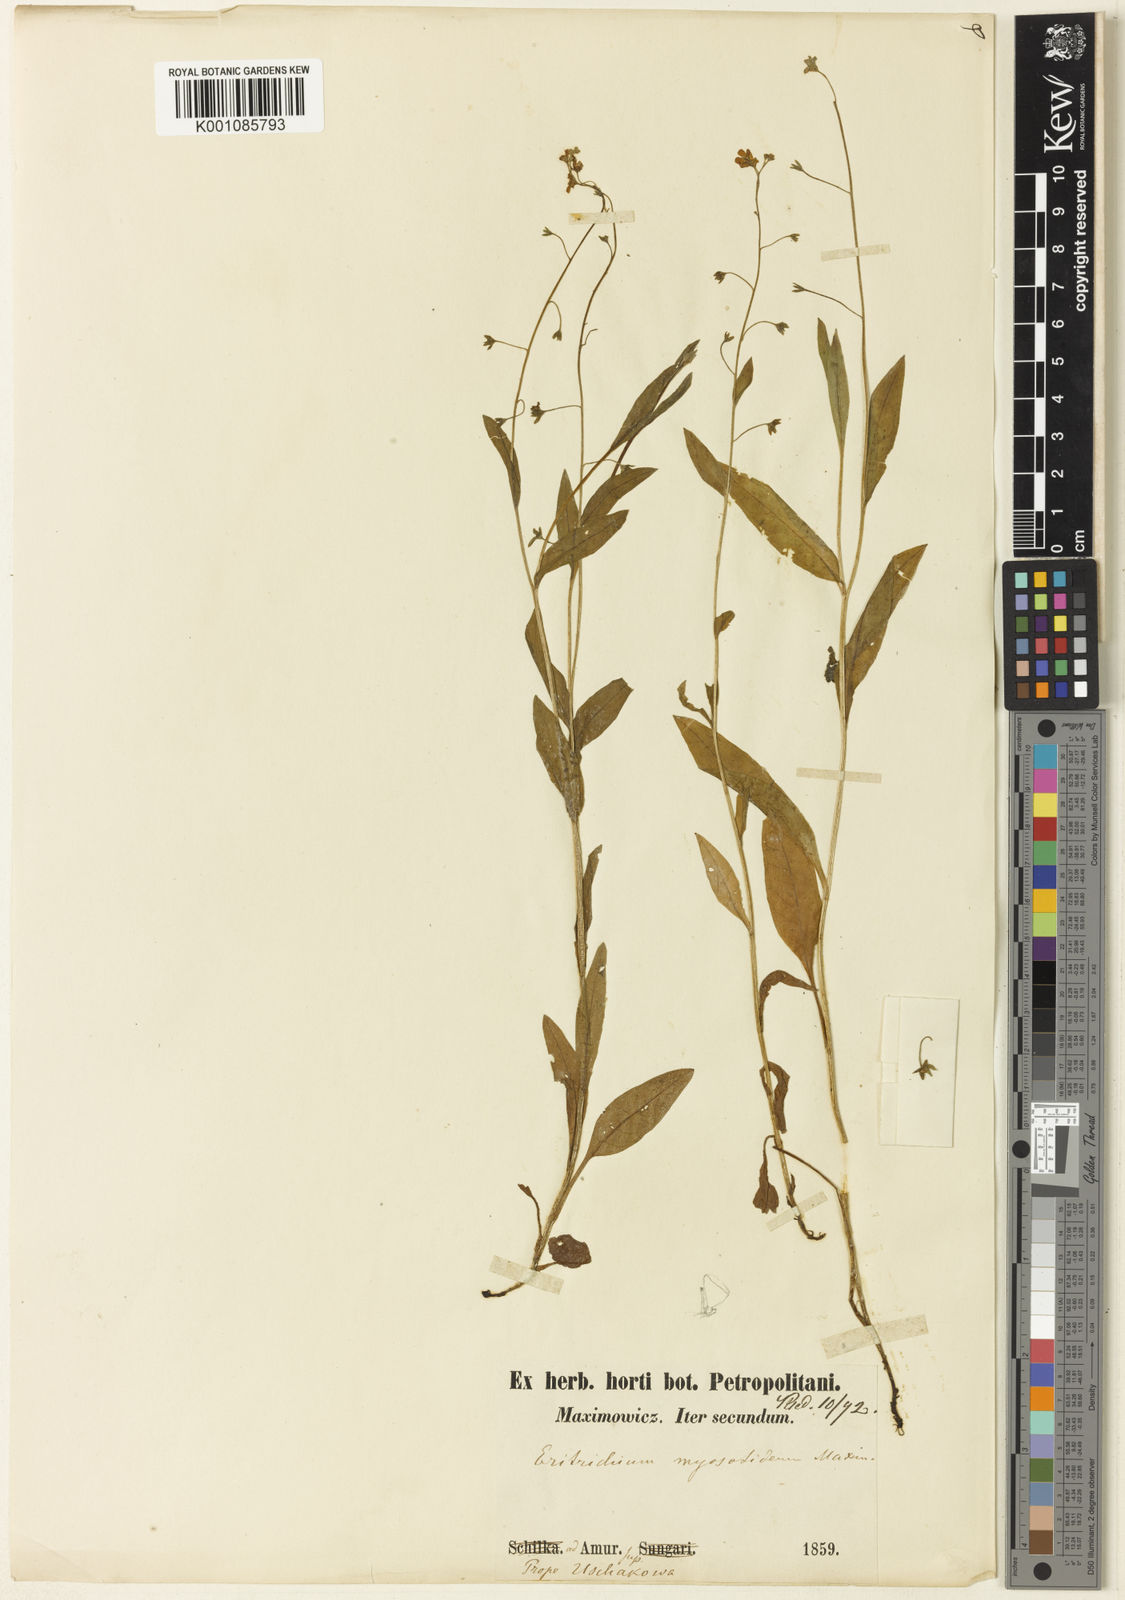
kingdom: Plantae
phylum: Tracheophyta
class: Magnoliopsida
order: Boraginales
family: Boraginaceae
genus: Trigonotis
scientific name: Trigonotis myosotidea
